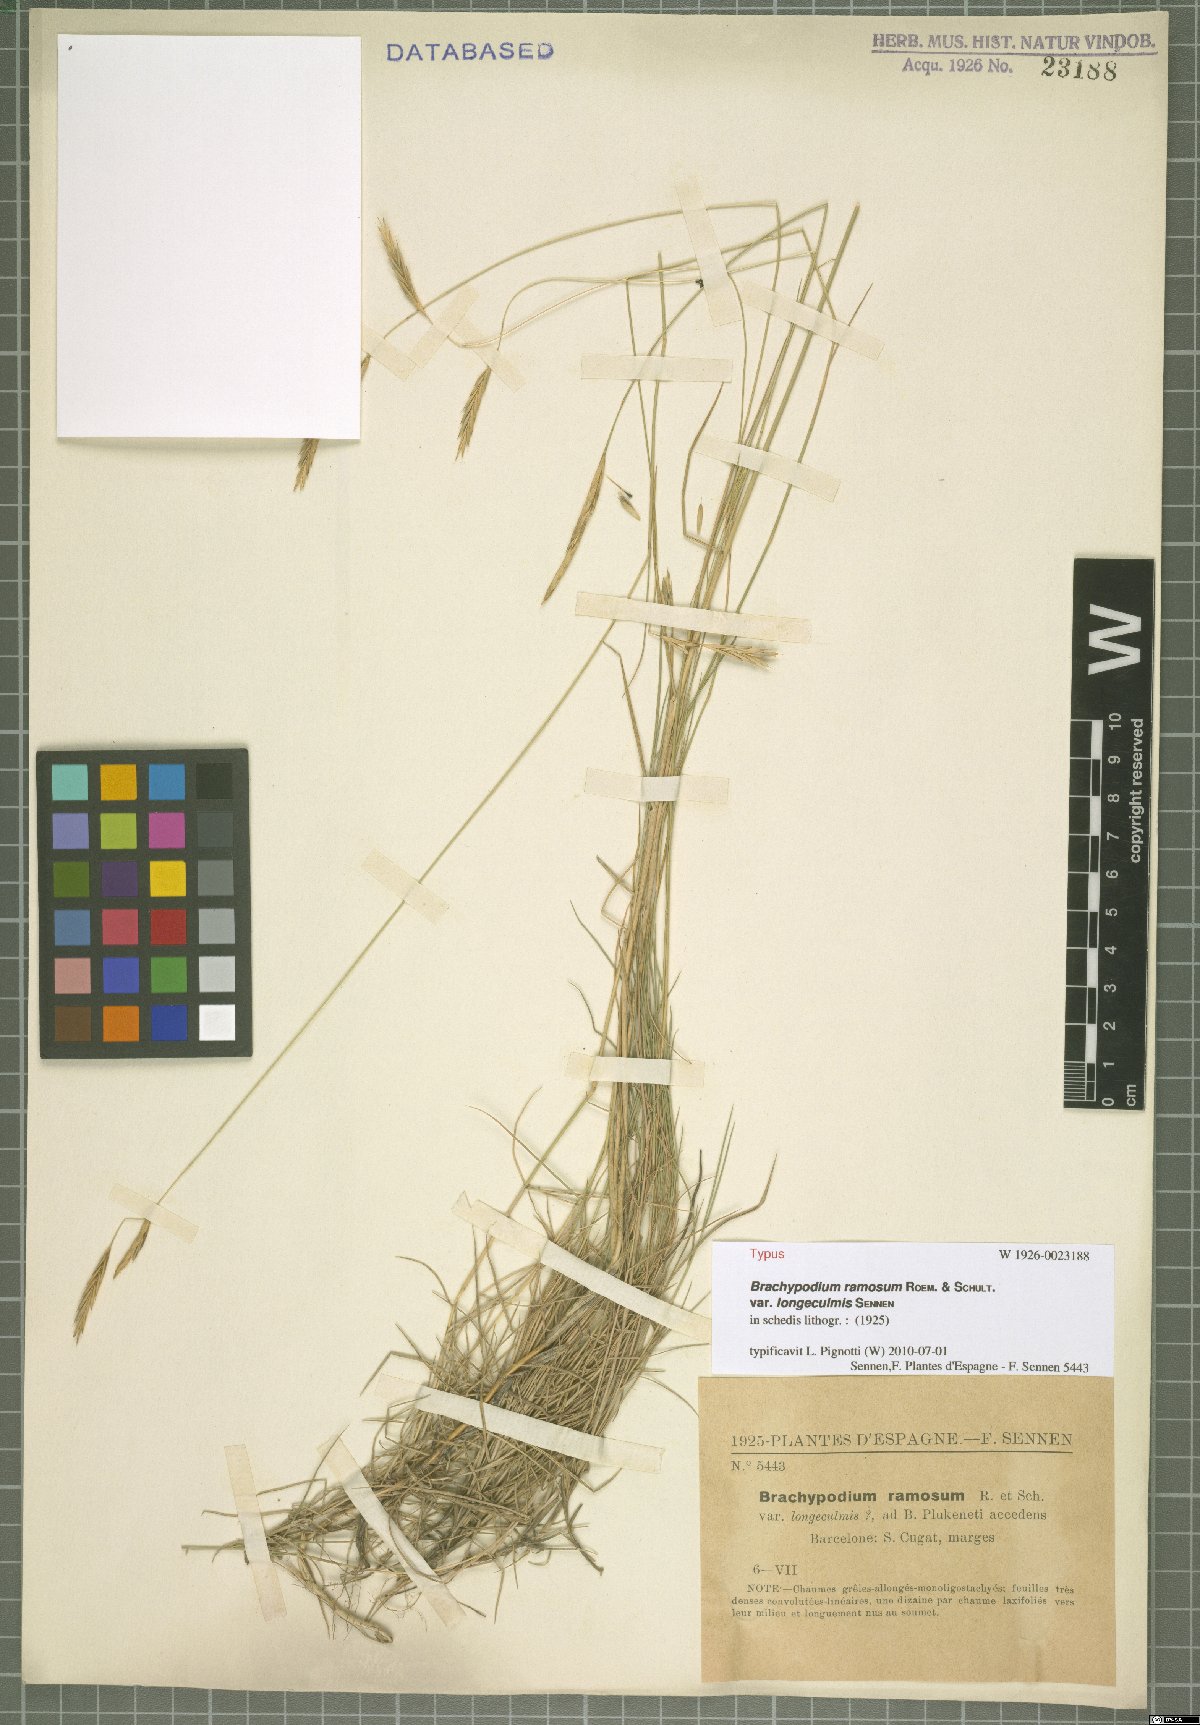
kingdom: Plantae
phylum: Tracheophyta
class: Liliopsida
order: Poales
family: Poaceae
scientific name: Poaceae
